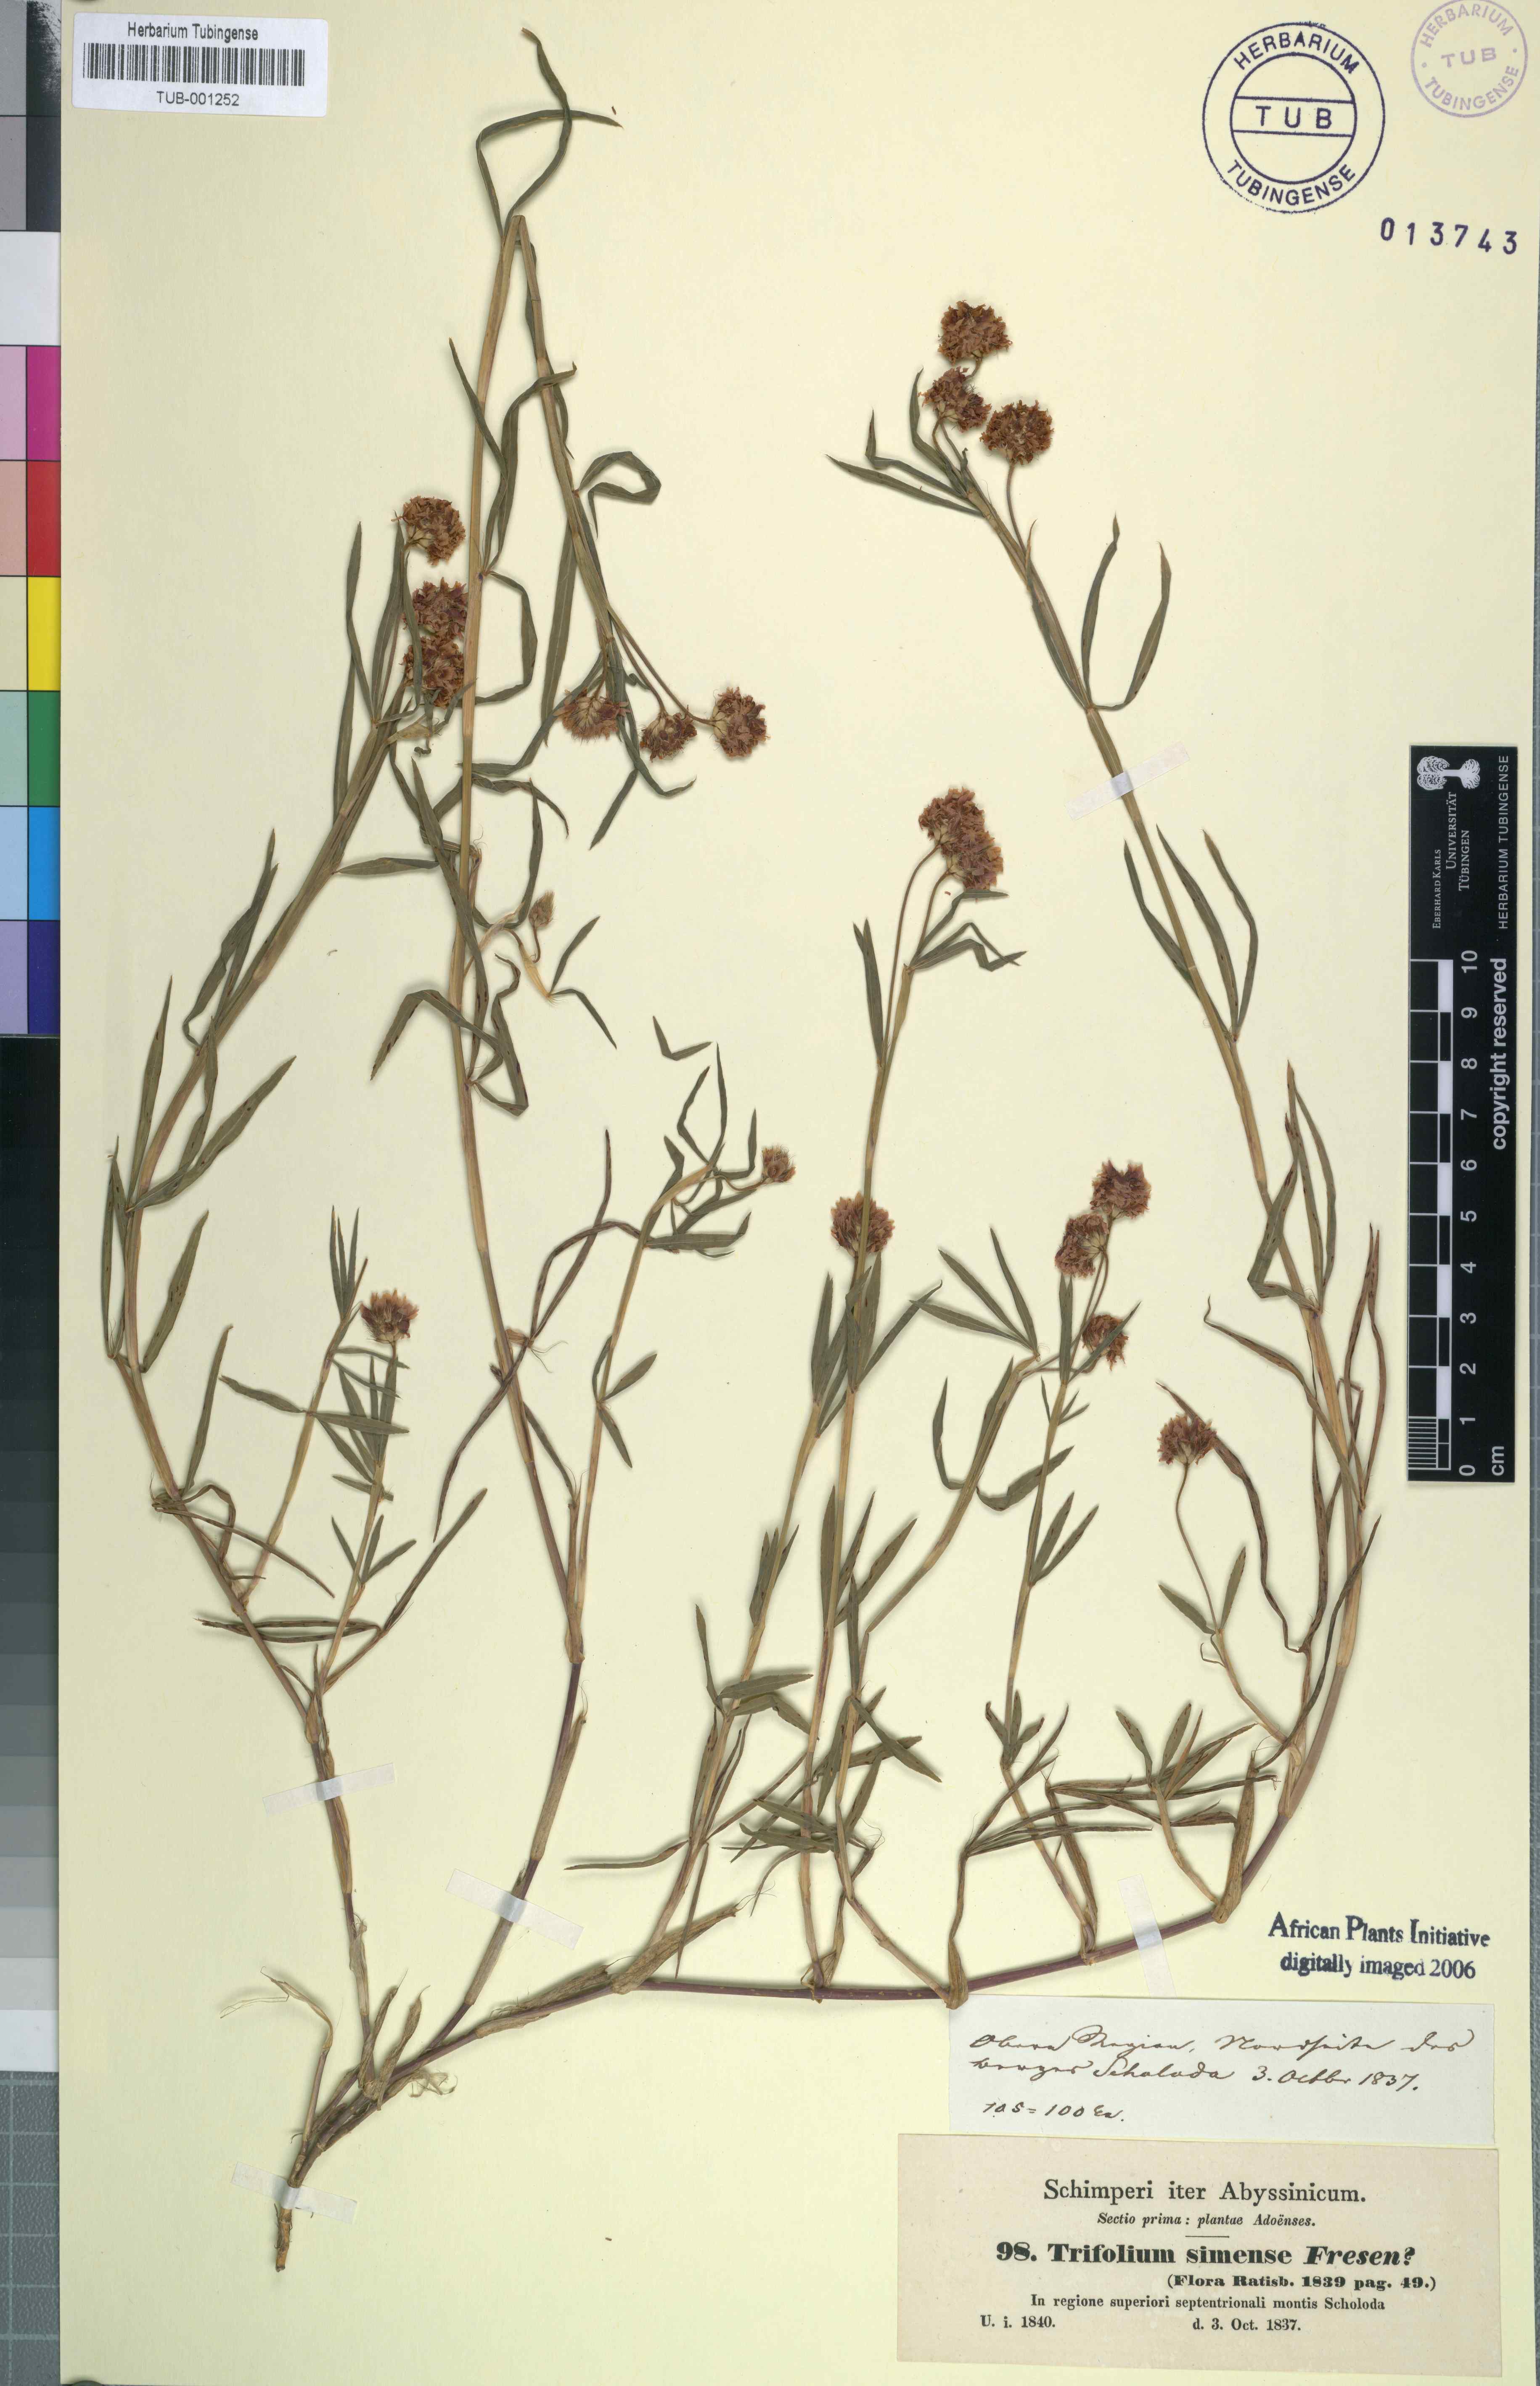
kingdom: Plantae
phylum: Tracheophyta
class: Magnoliopsida
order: Fabales
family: Fabaceae
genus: Trifolium
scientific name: Trifolium simense
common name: Simen clover
